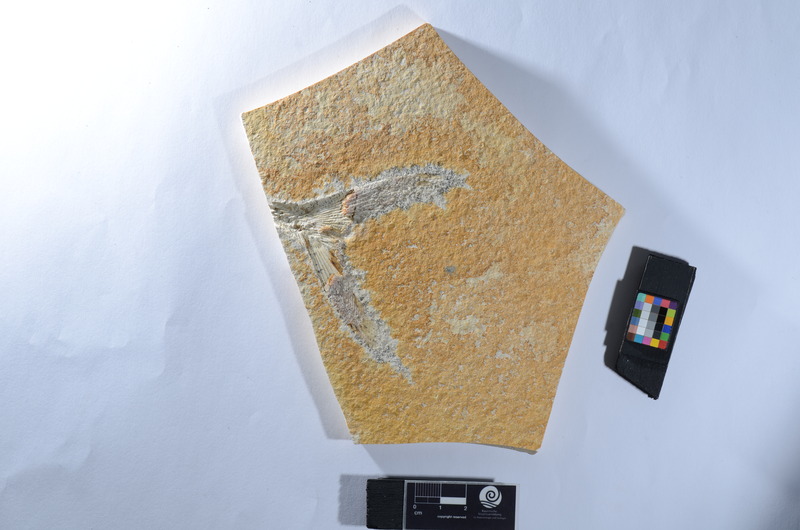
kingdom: Animalia
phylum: Chordata
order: Amiiformes
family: Caturidae
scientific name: Caturidae
